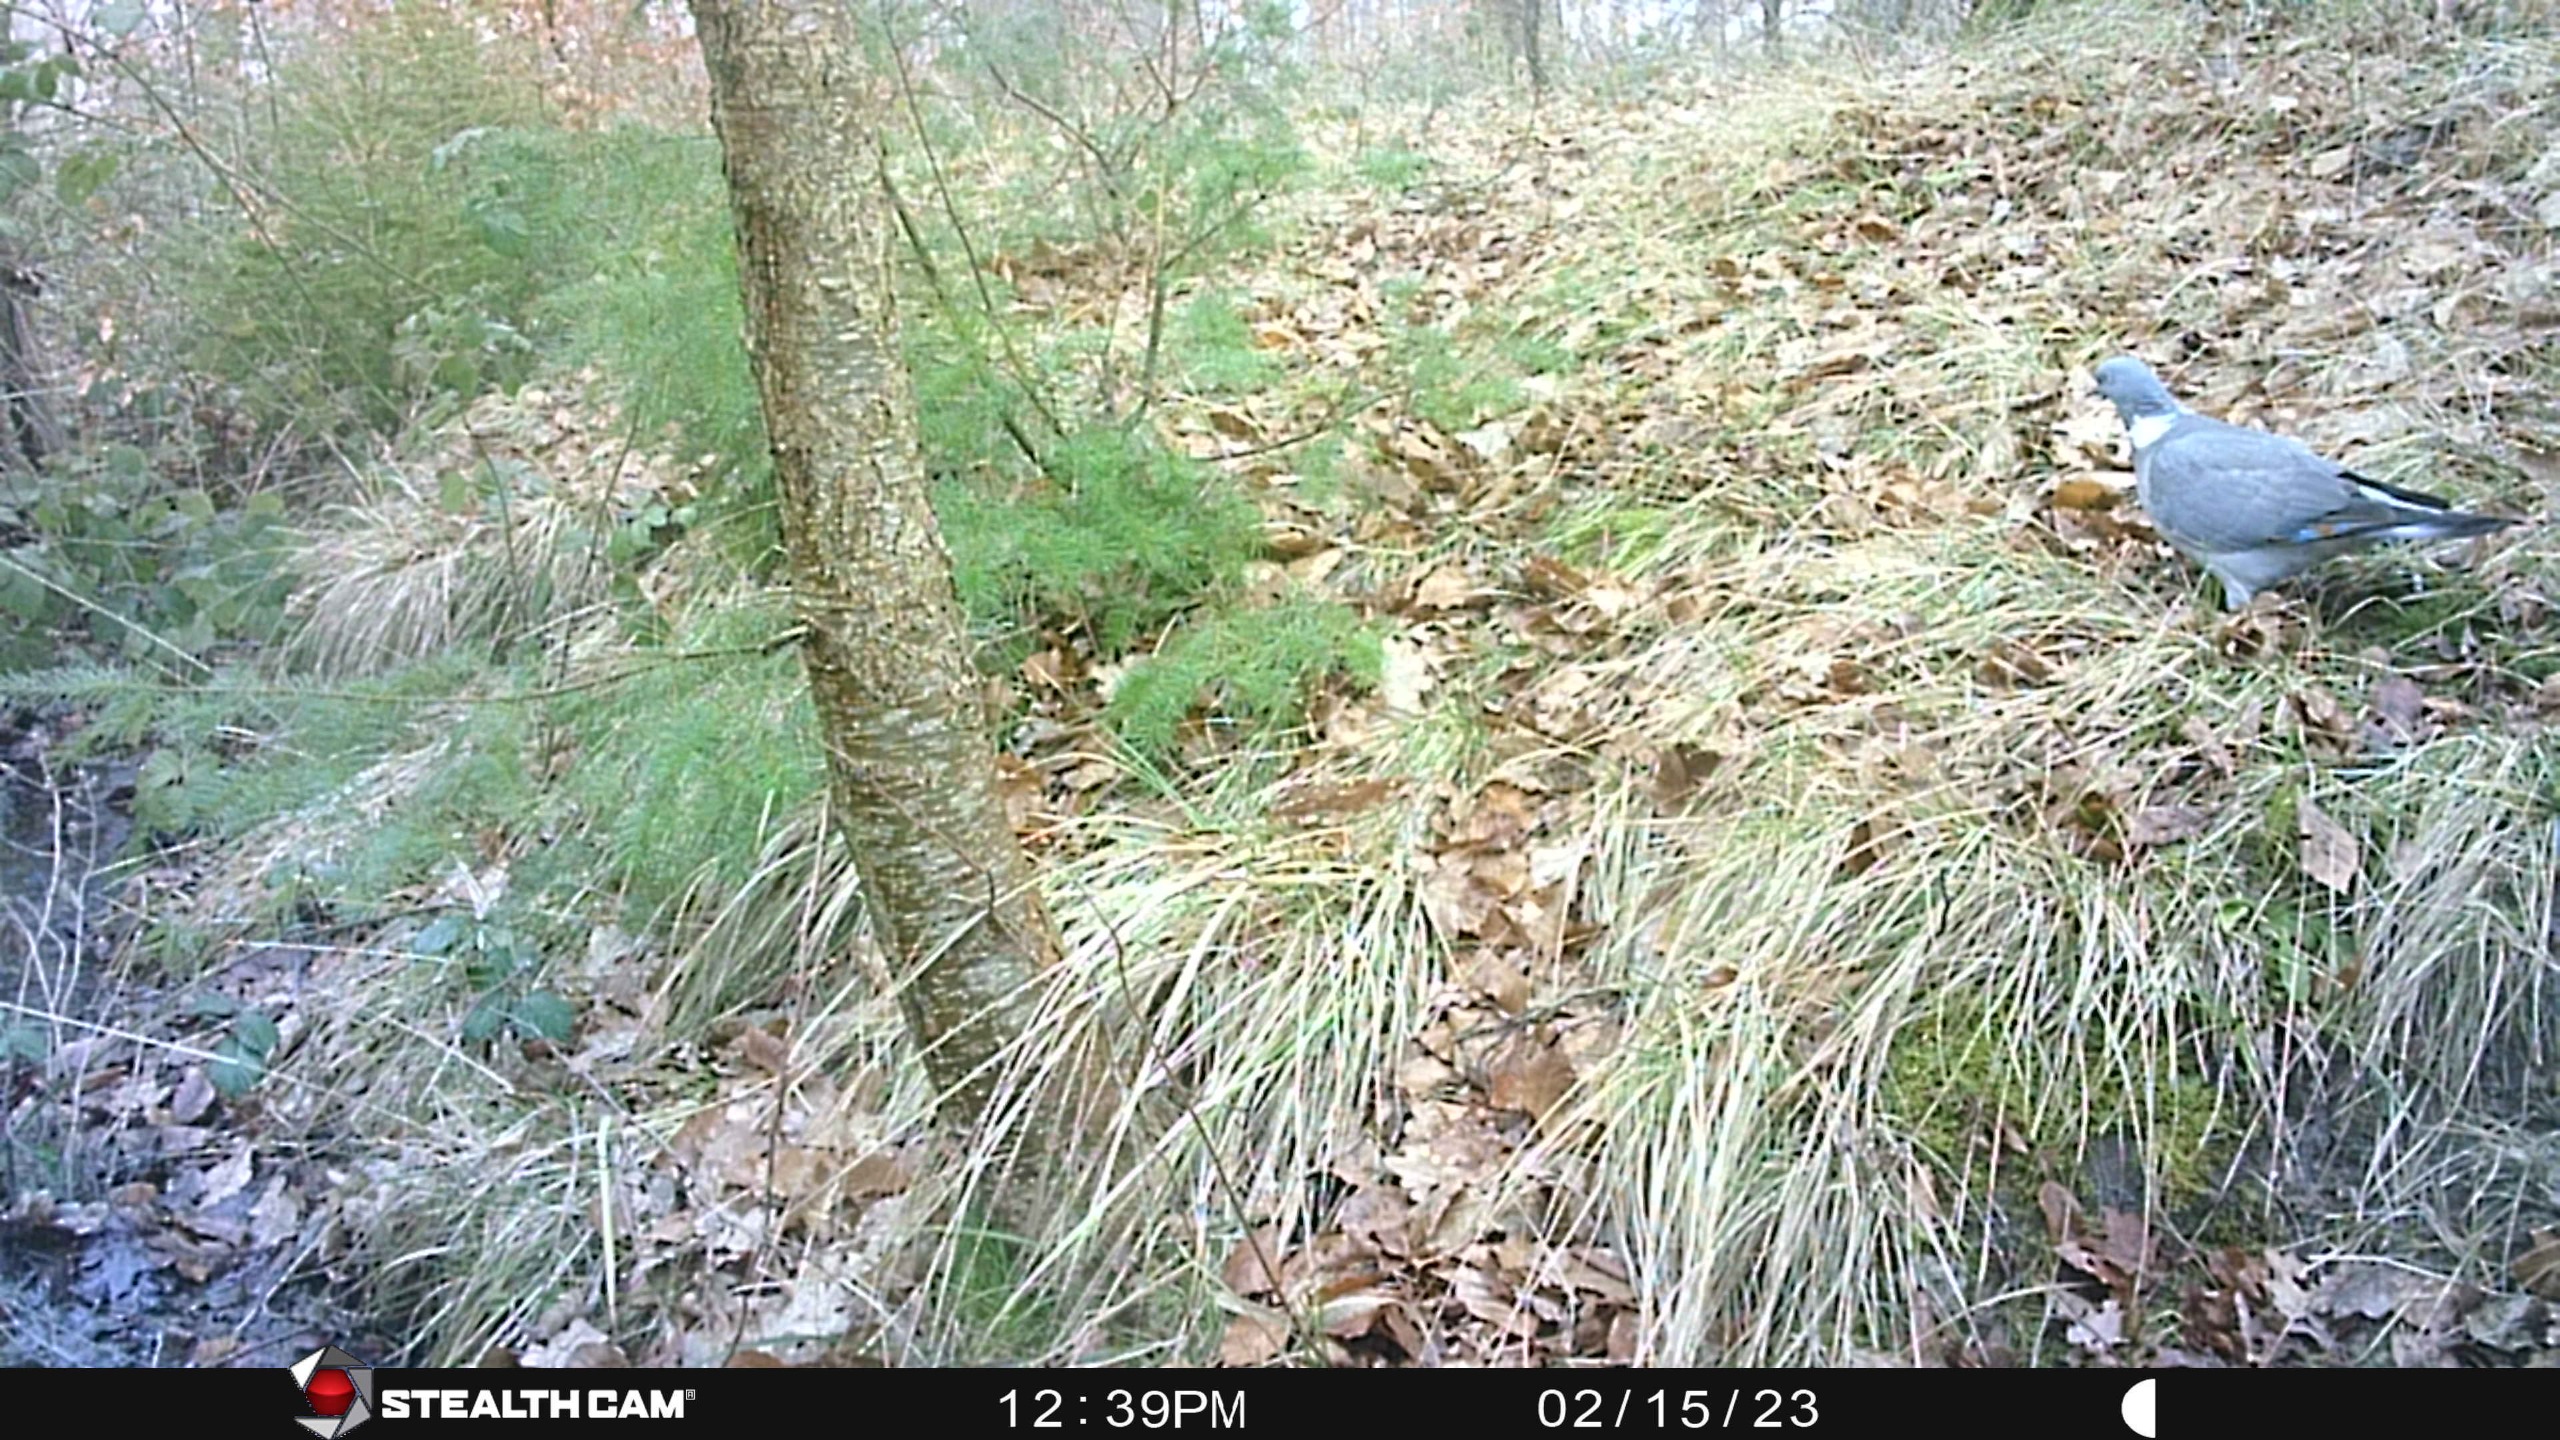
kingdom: Animalia
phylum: Chordata
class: Aves
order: Columbiformes
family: Columbidae
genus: Columba
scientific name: Columba palumbus
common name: Ringdue
